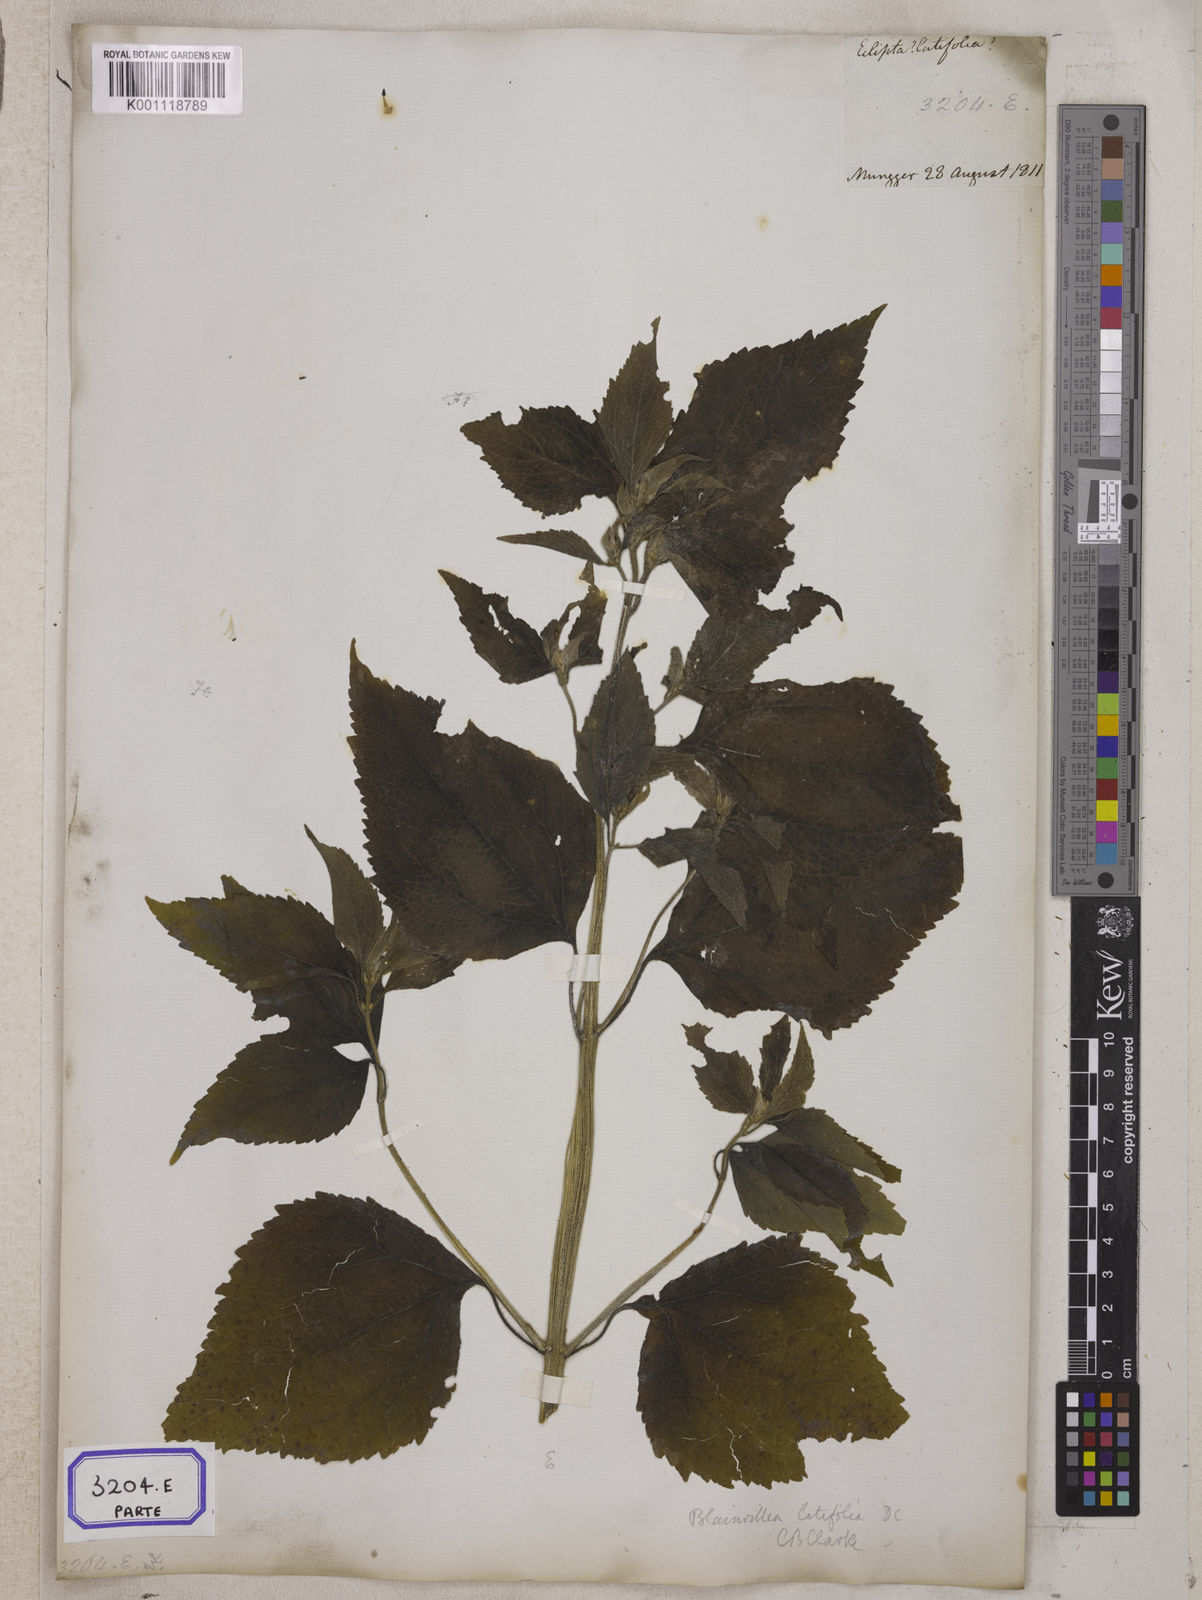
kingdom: Plantae
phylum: Tracheophyta
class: Magnoliopsida
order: Asterales
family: Asteraceae
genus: Blainvillea
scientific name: Blainvillea acmella
